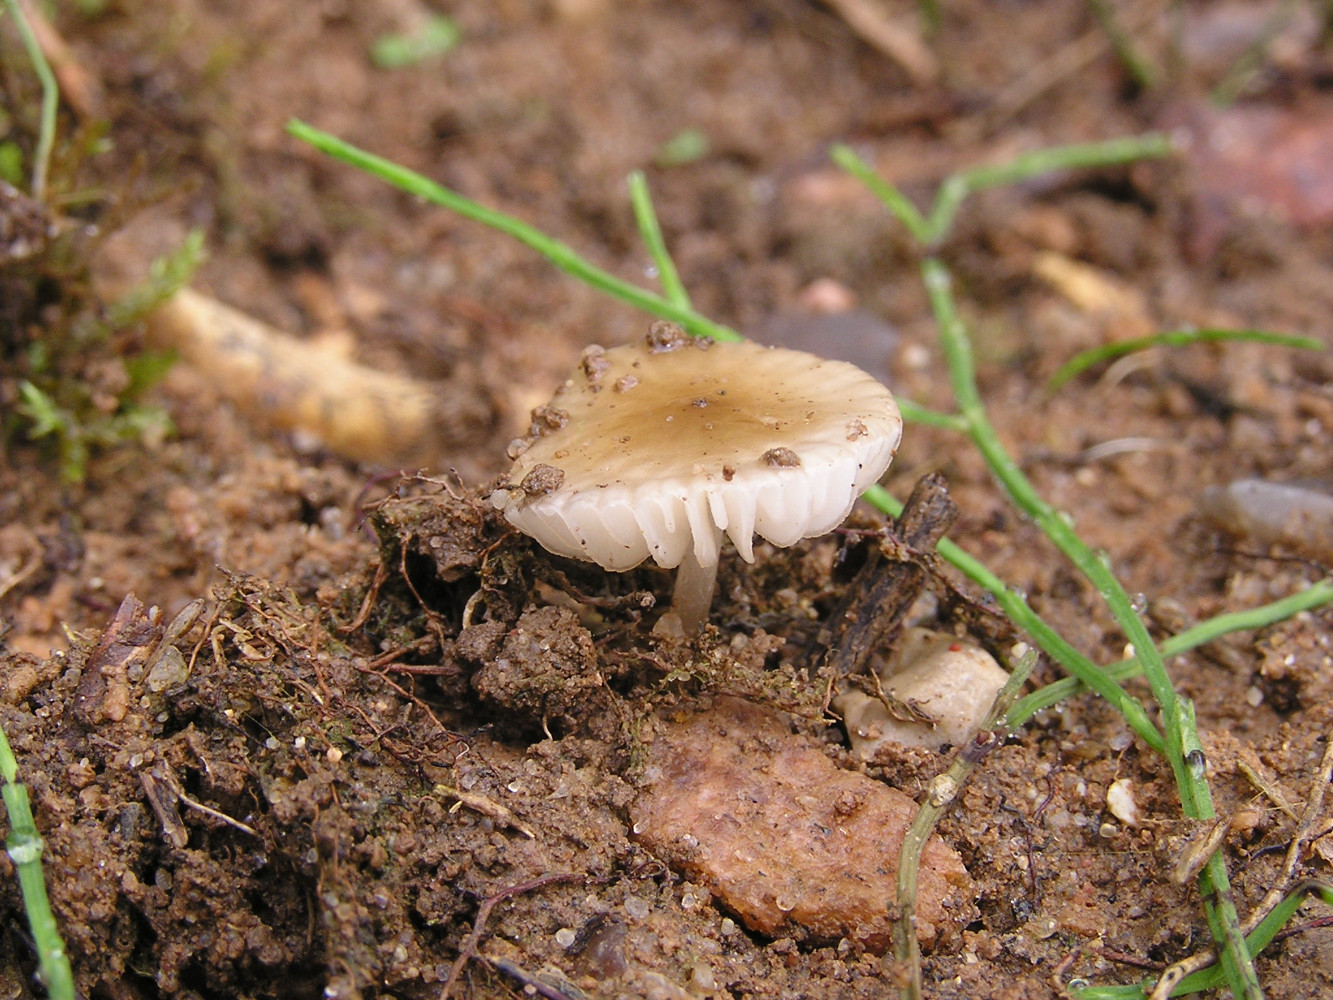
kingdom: Fungi
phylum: Basidiomycota
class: Agaricomycetes
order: Agaricales
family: Physalacriaceae
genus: Hymenopellis
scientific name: Hymenopellis radicata
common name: almindelig pælerodshat
